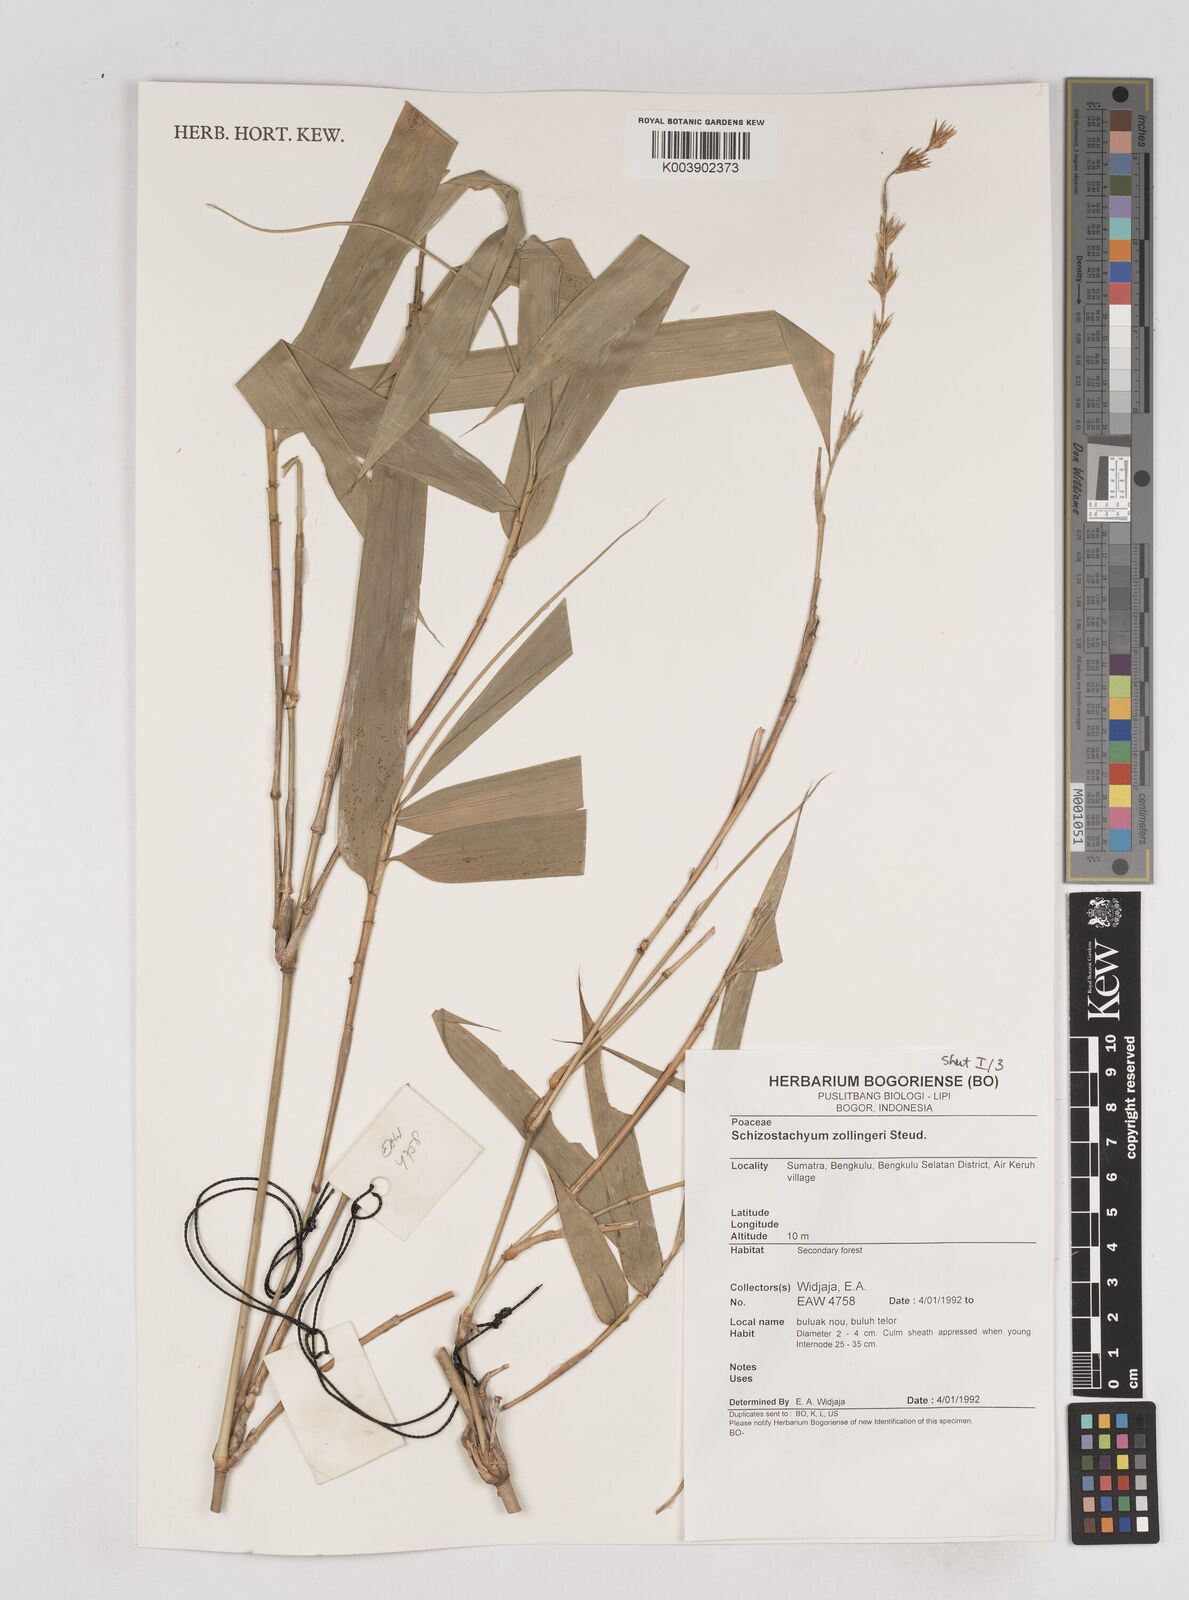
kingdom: Plantae
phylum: Tracheophyta
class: Liliopsida
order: Poales
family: Poaceae
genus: Schizostachyum
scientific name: Schizostachyum zollingeri
